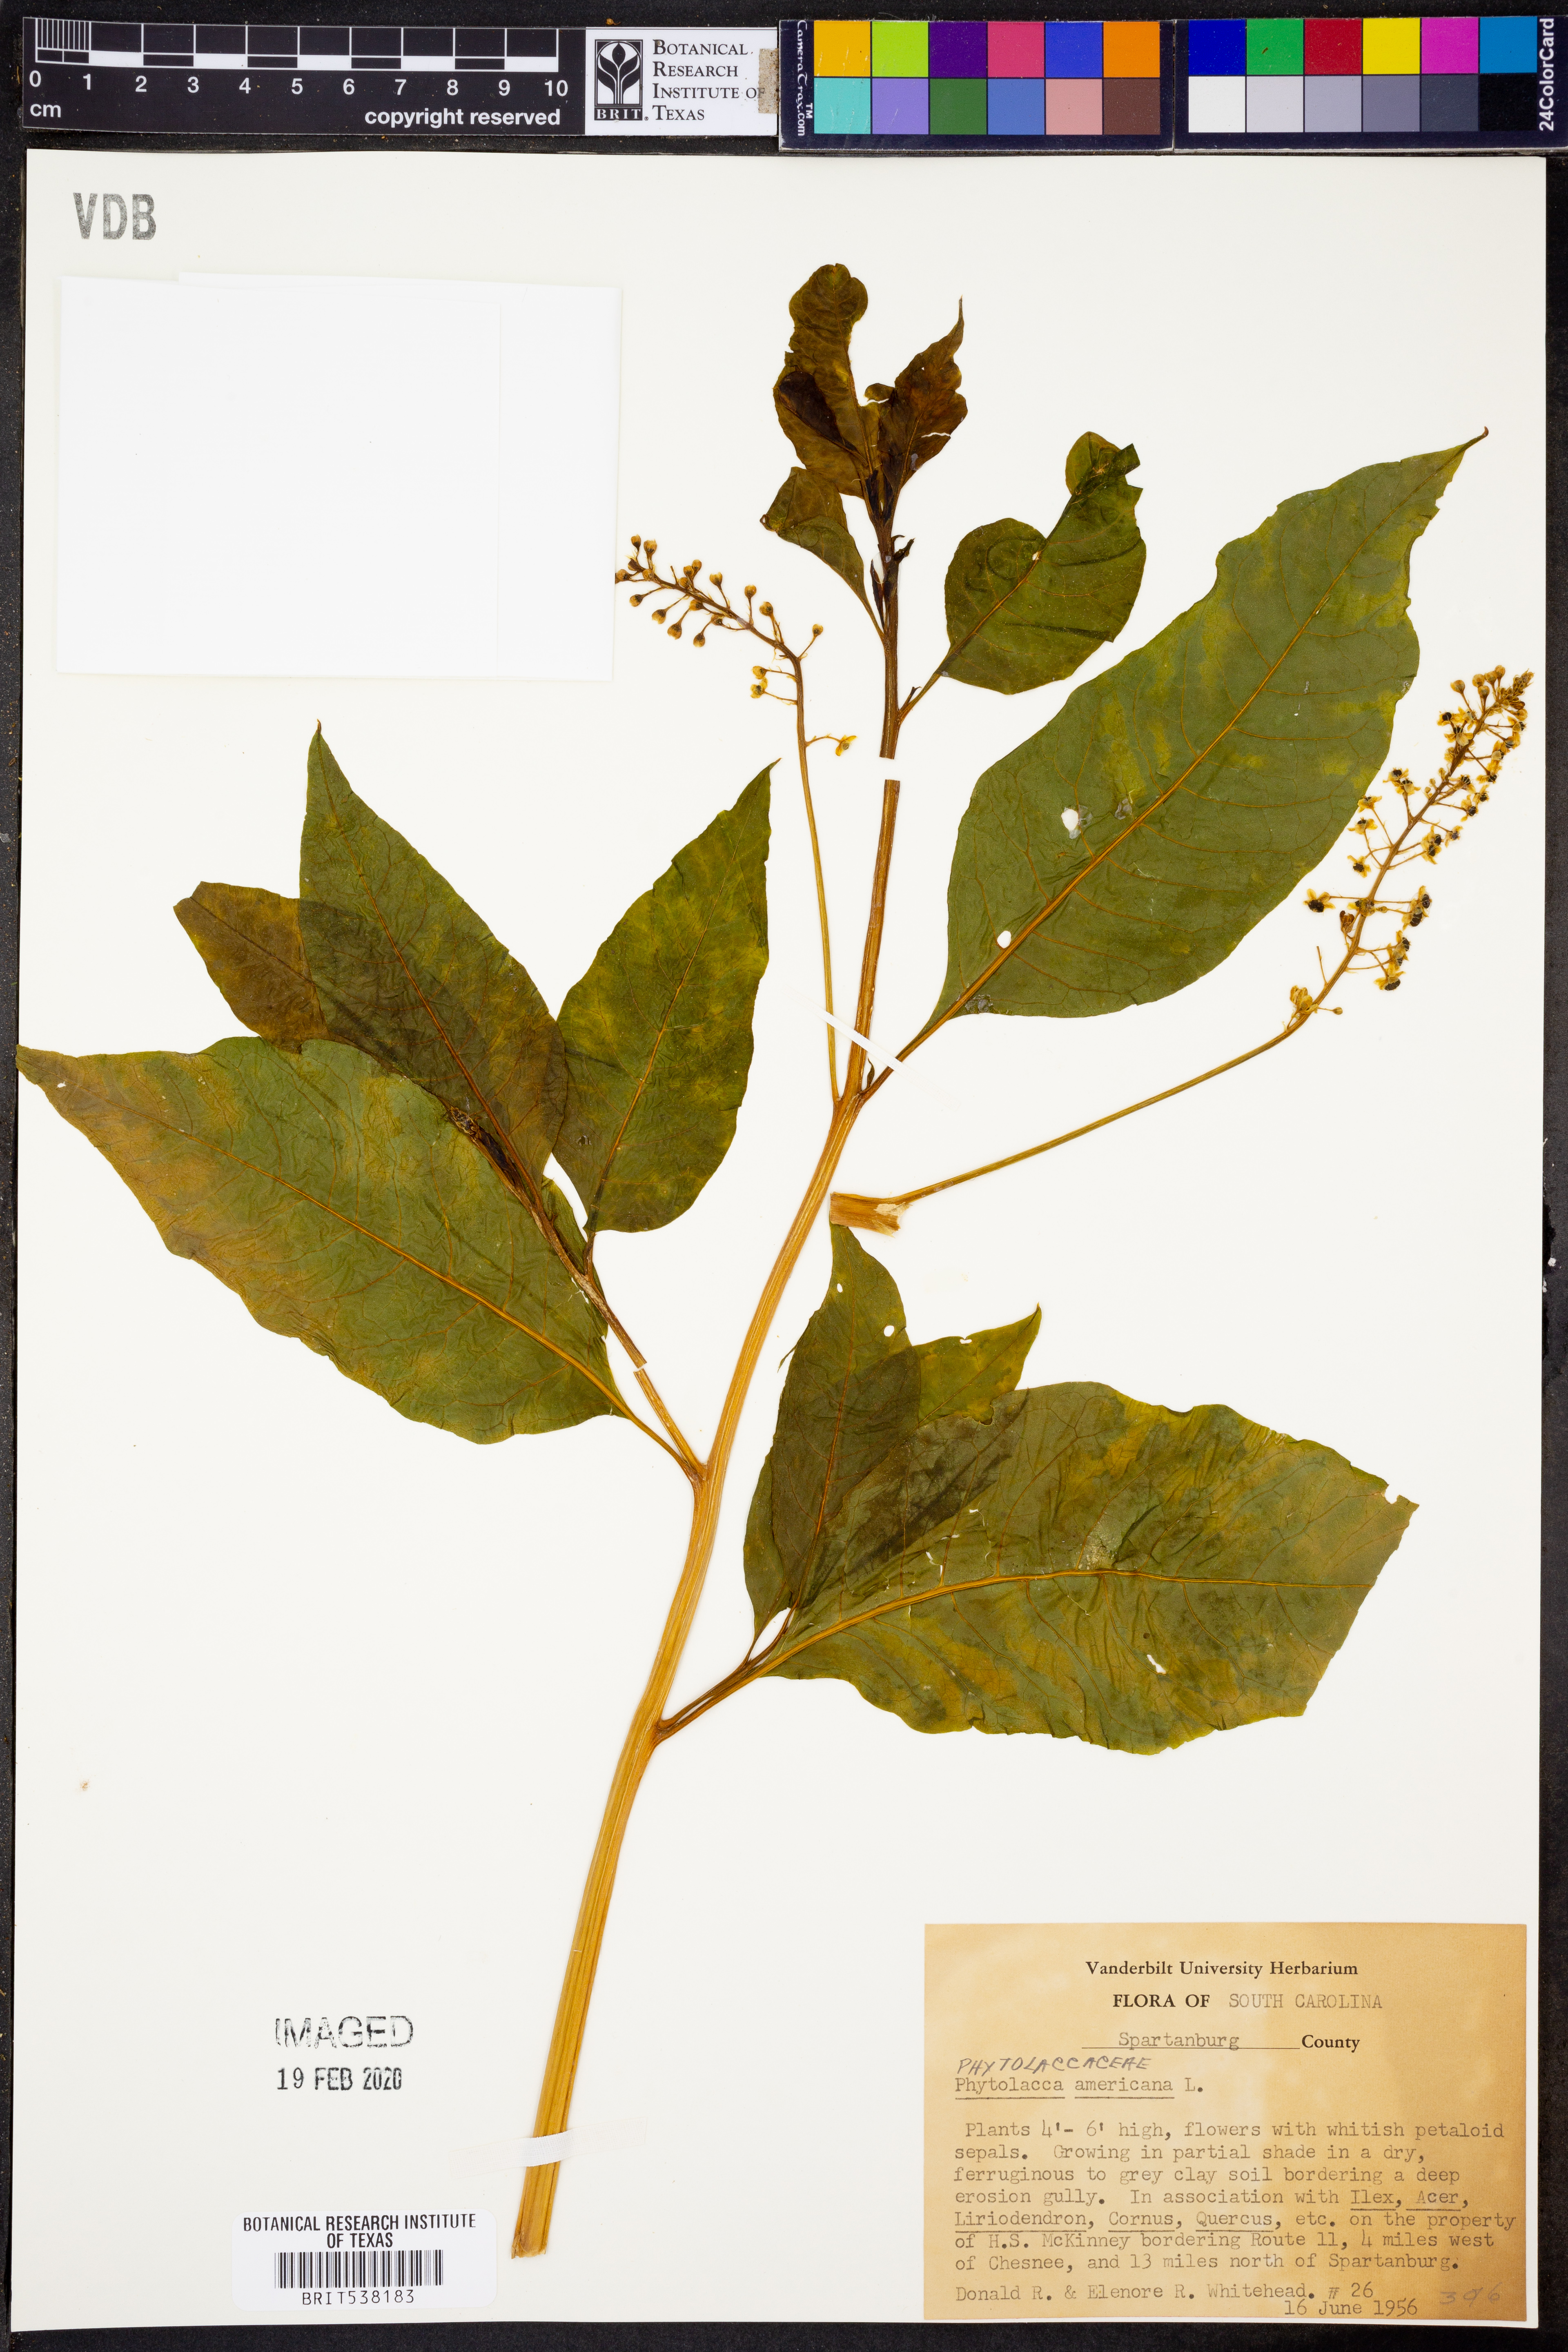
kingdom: Plantae
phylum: Tracheophyta
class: Magnoliopsida
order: Caryophyllales
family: Phytolaccaceae
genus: Phytolacca
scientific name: Phytolacca americana
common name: American pokeweed
